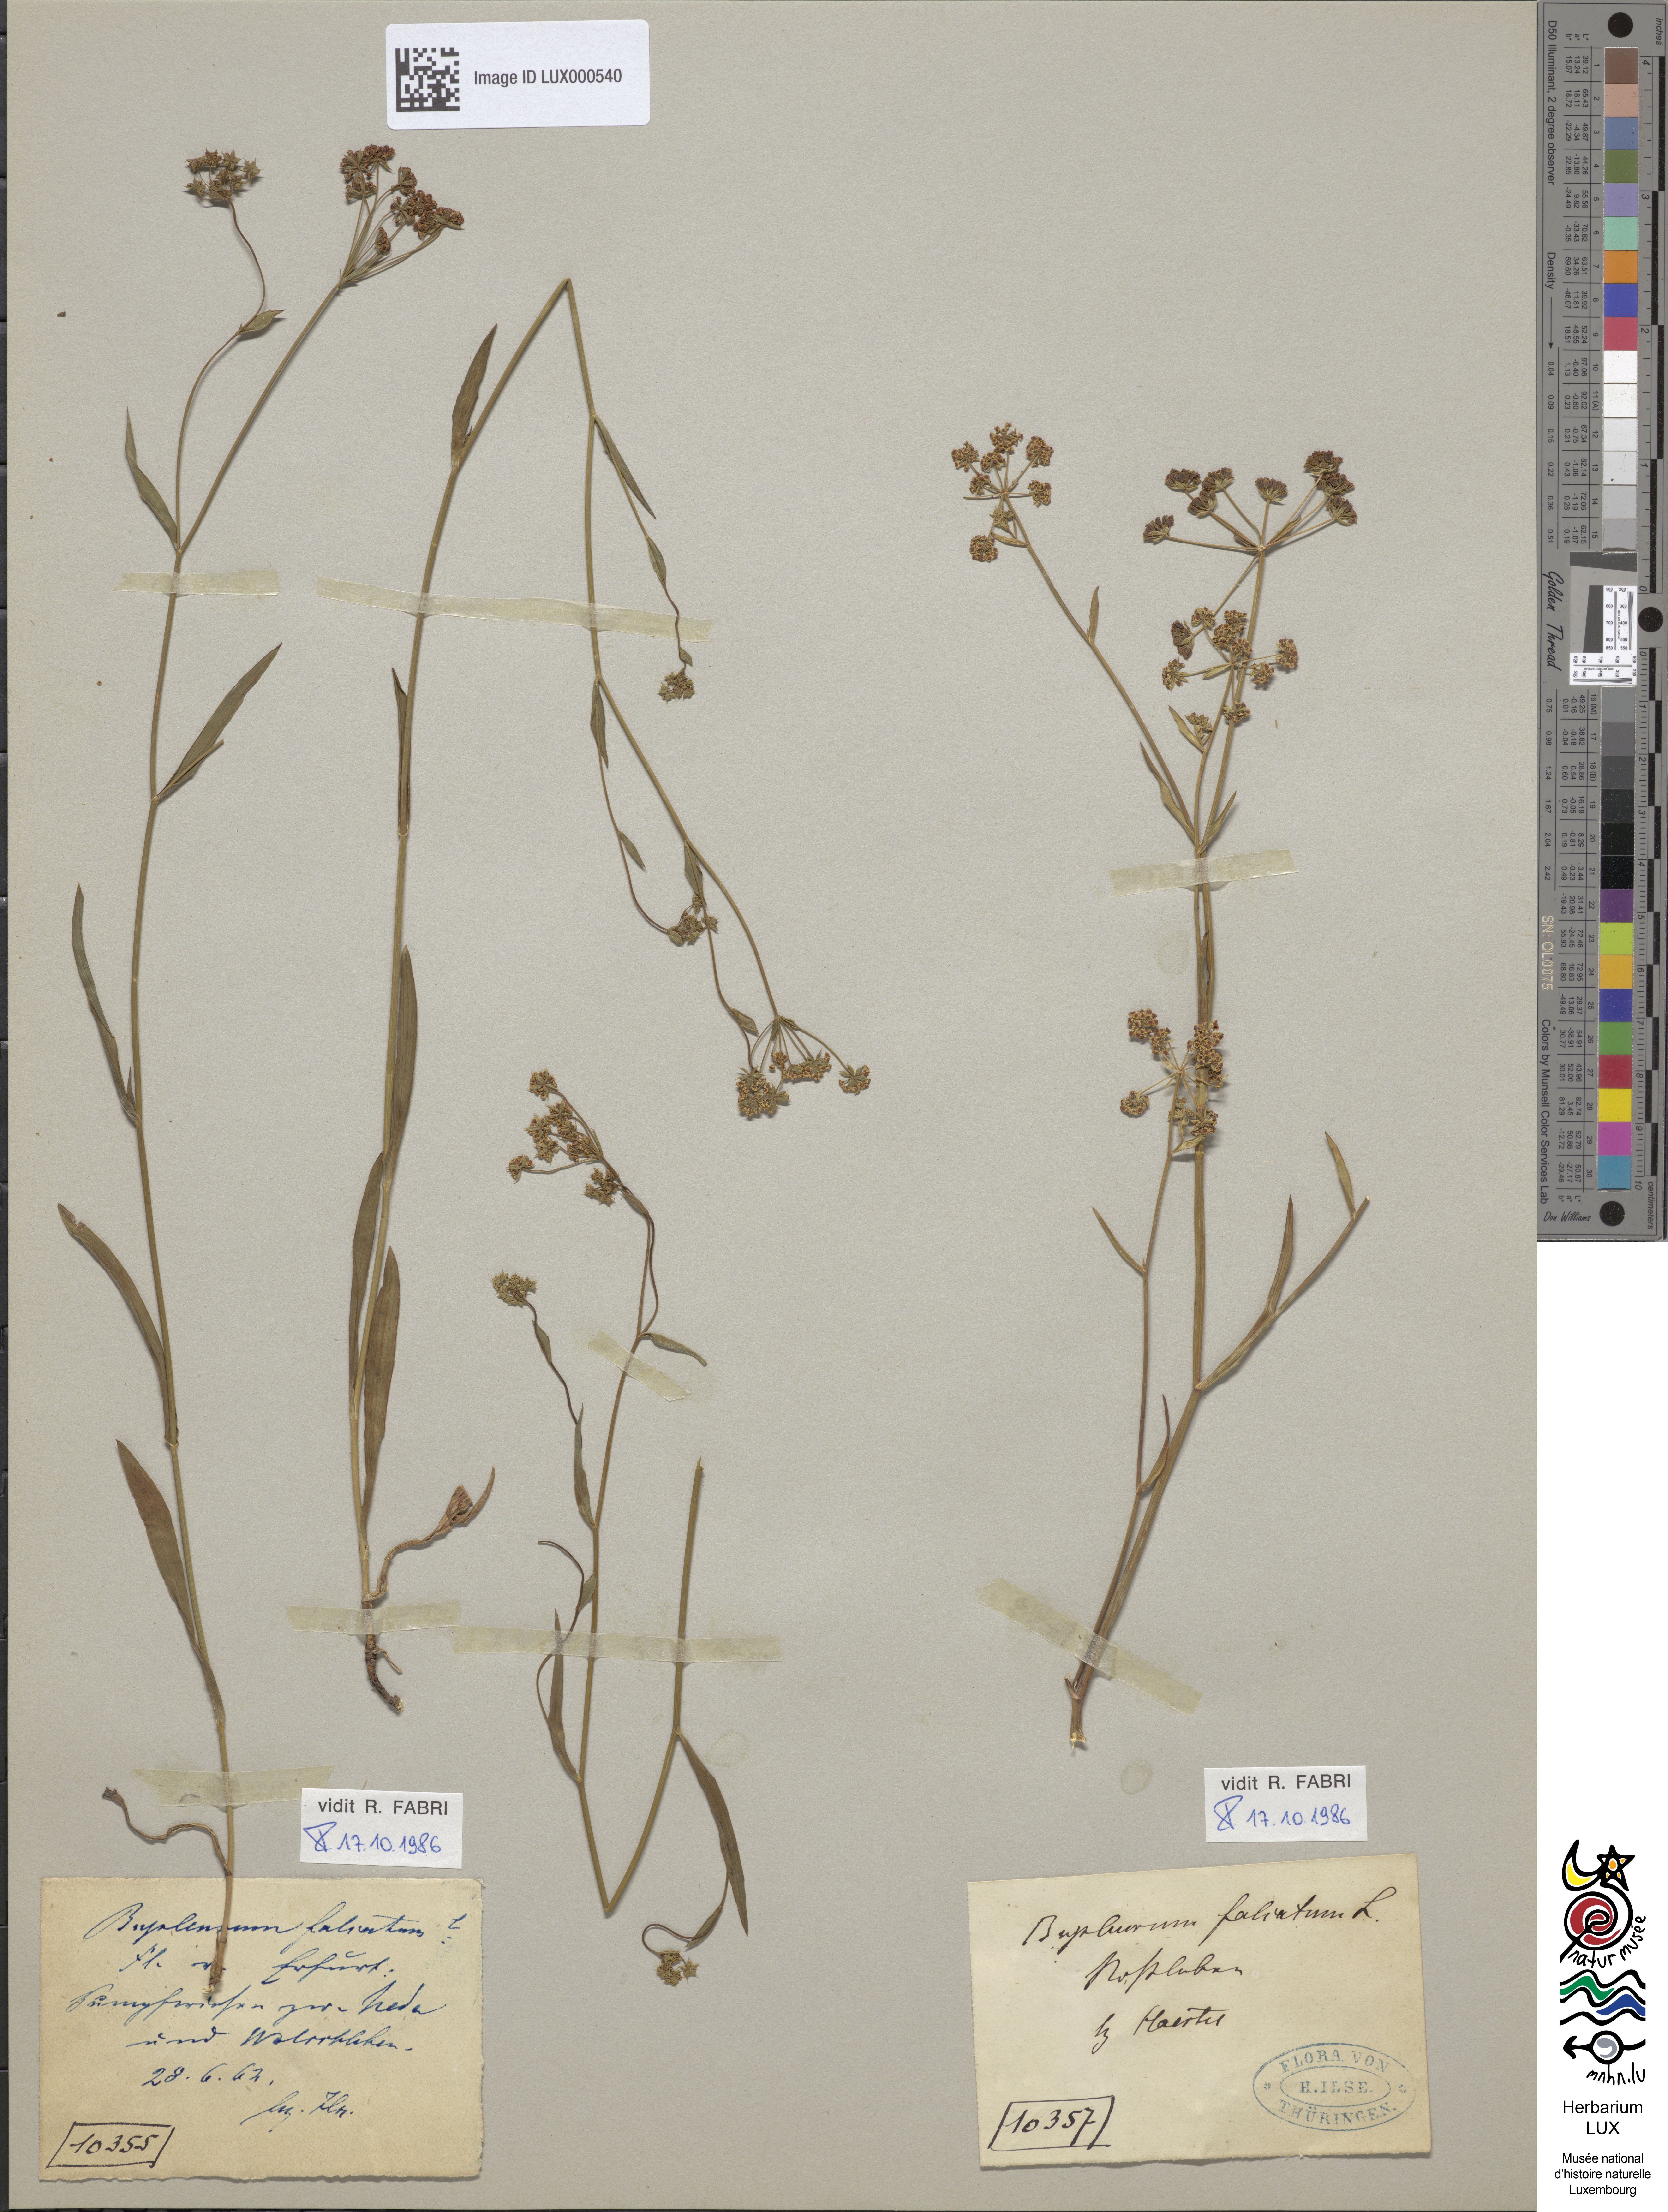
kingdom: Plantae
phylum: Tracheophyta
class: Magnoliopsida
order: Fabales
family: Fabaceae
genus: Lathyrus
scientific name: Lathyrus laevigatus
